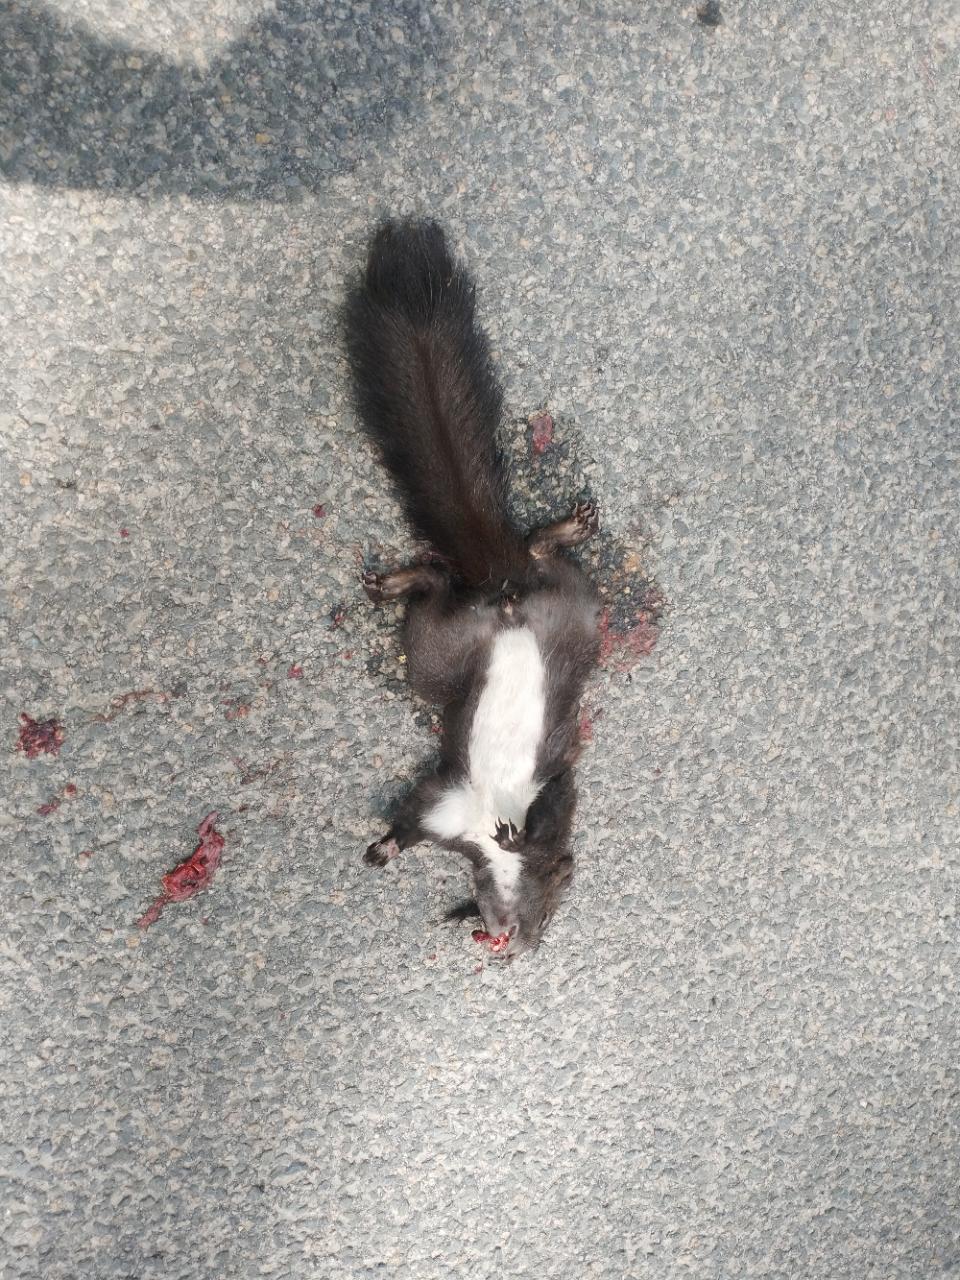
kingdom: Animalia
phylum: Chordata
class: Mammalia
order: Rodentia
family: Sciuridae
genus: Sciurus
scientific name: Sciurus vulgaris
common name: Eurasian red squirrel
